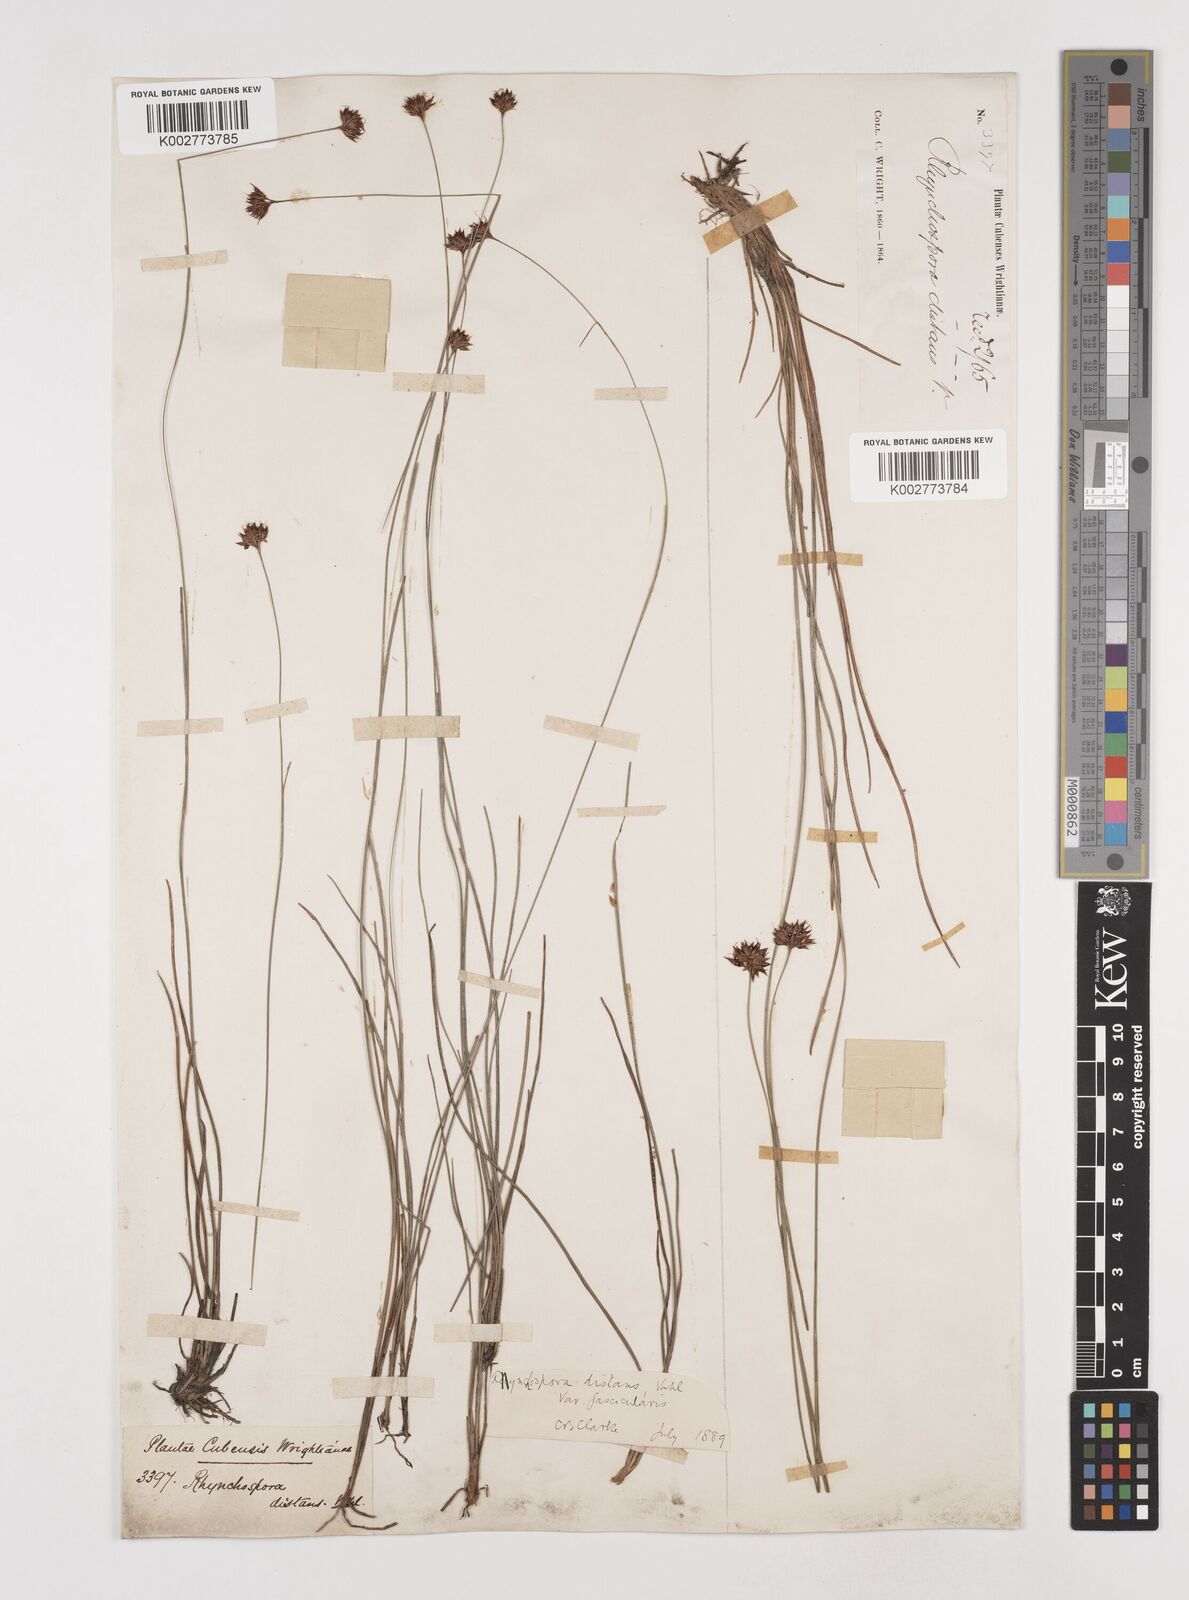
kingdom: Plantae
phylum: Tracheophyta
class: Liliopsida
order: Poales
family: Cyperaceae
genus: Rhynchospora
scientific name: Rhynchospora fascicularis
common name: Fascicled beak sedge
